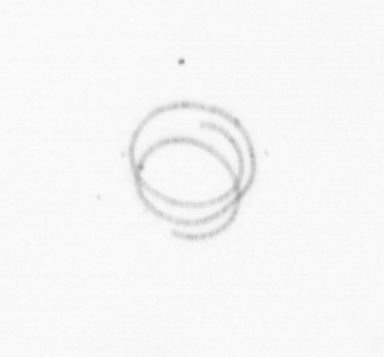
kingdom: Chromista
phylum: Ochrophyta
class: Bacillariophyceae
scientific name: Bacillariophyceae
